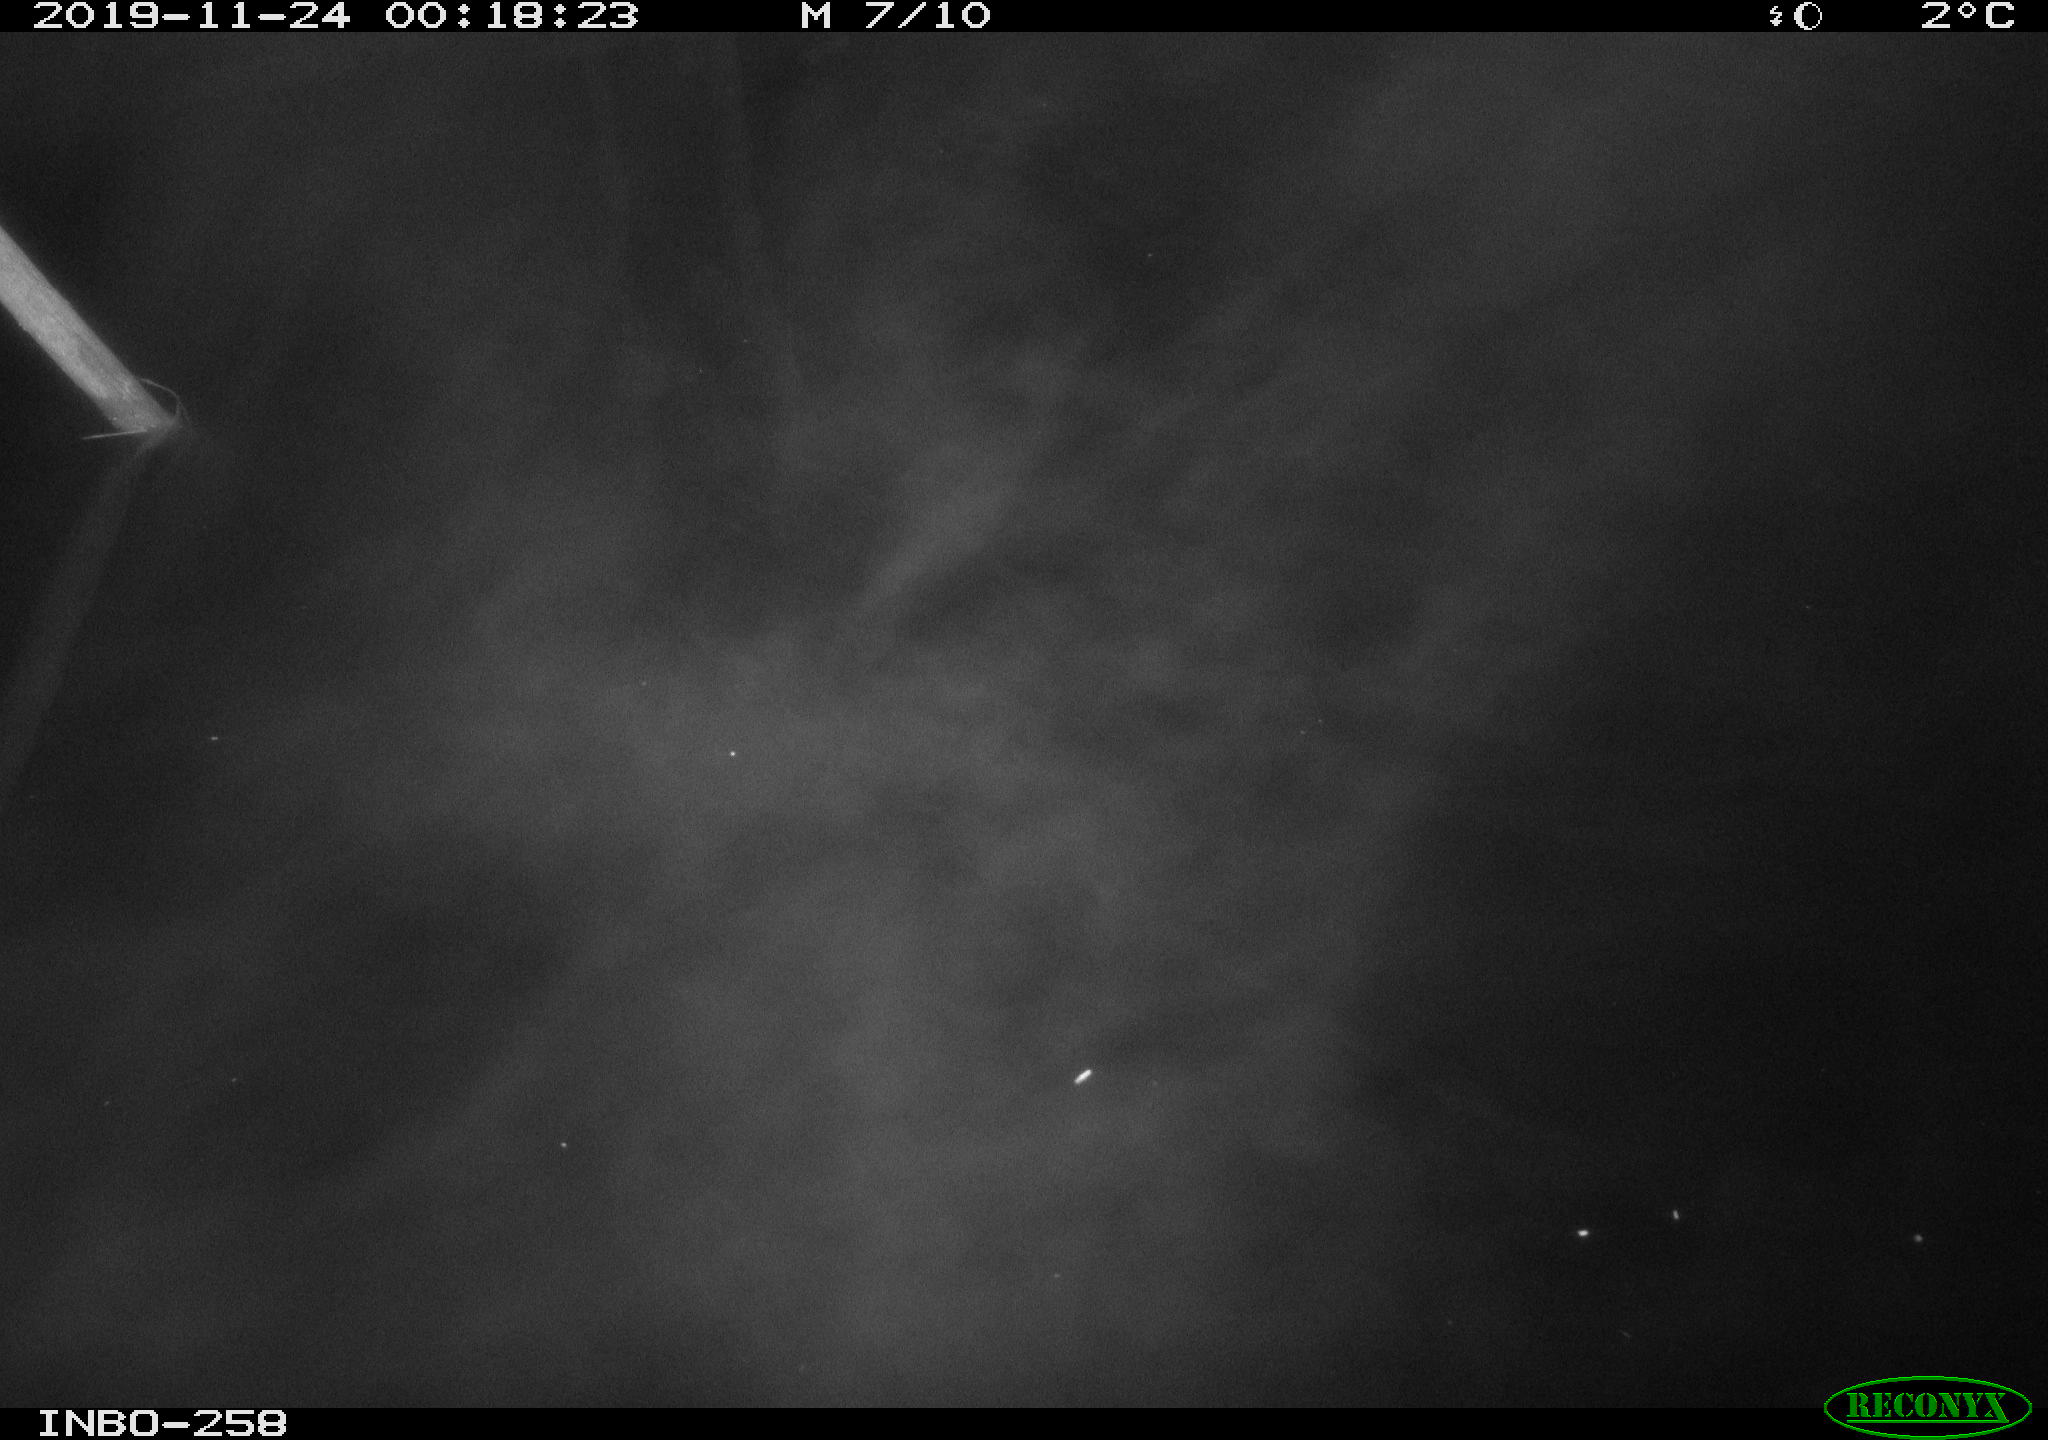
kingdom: Animalia
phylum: Chordata
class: Aves
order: Anseriformes
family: Anatidae
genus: Anas
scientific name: Anas platyrhynchos
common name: Mallard
